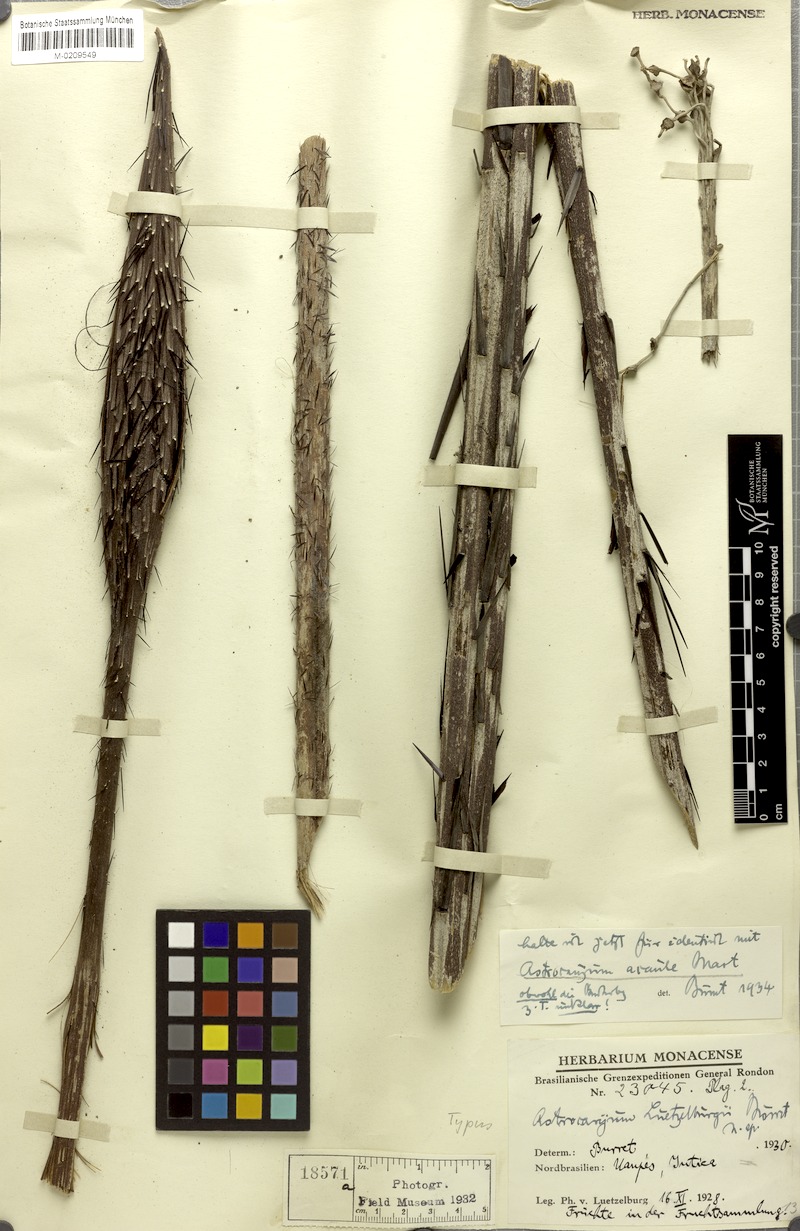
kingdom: Plantae
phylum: Tracheophyta
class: Liliopsida
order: Arecales
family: Arecaceae
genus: Astrocaryum
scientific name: Astrocaryum acaule
